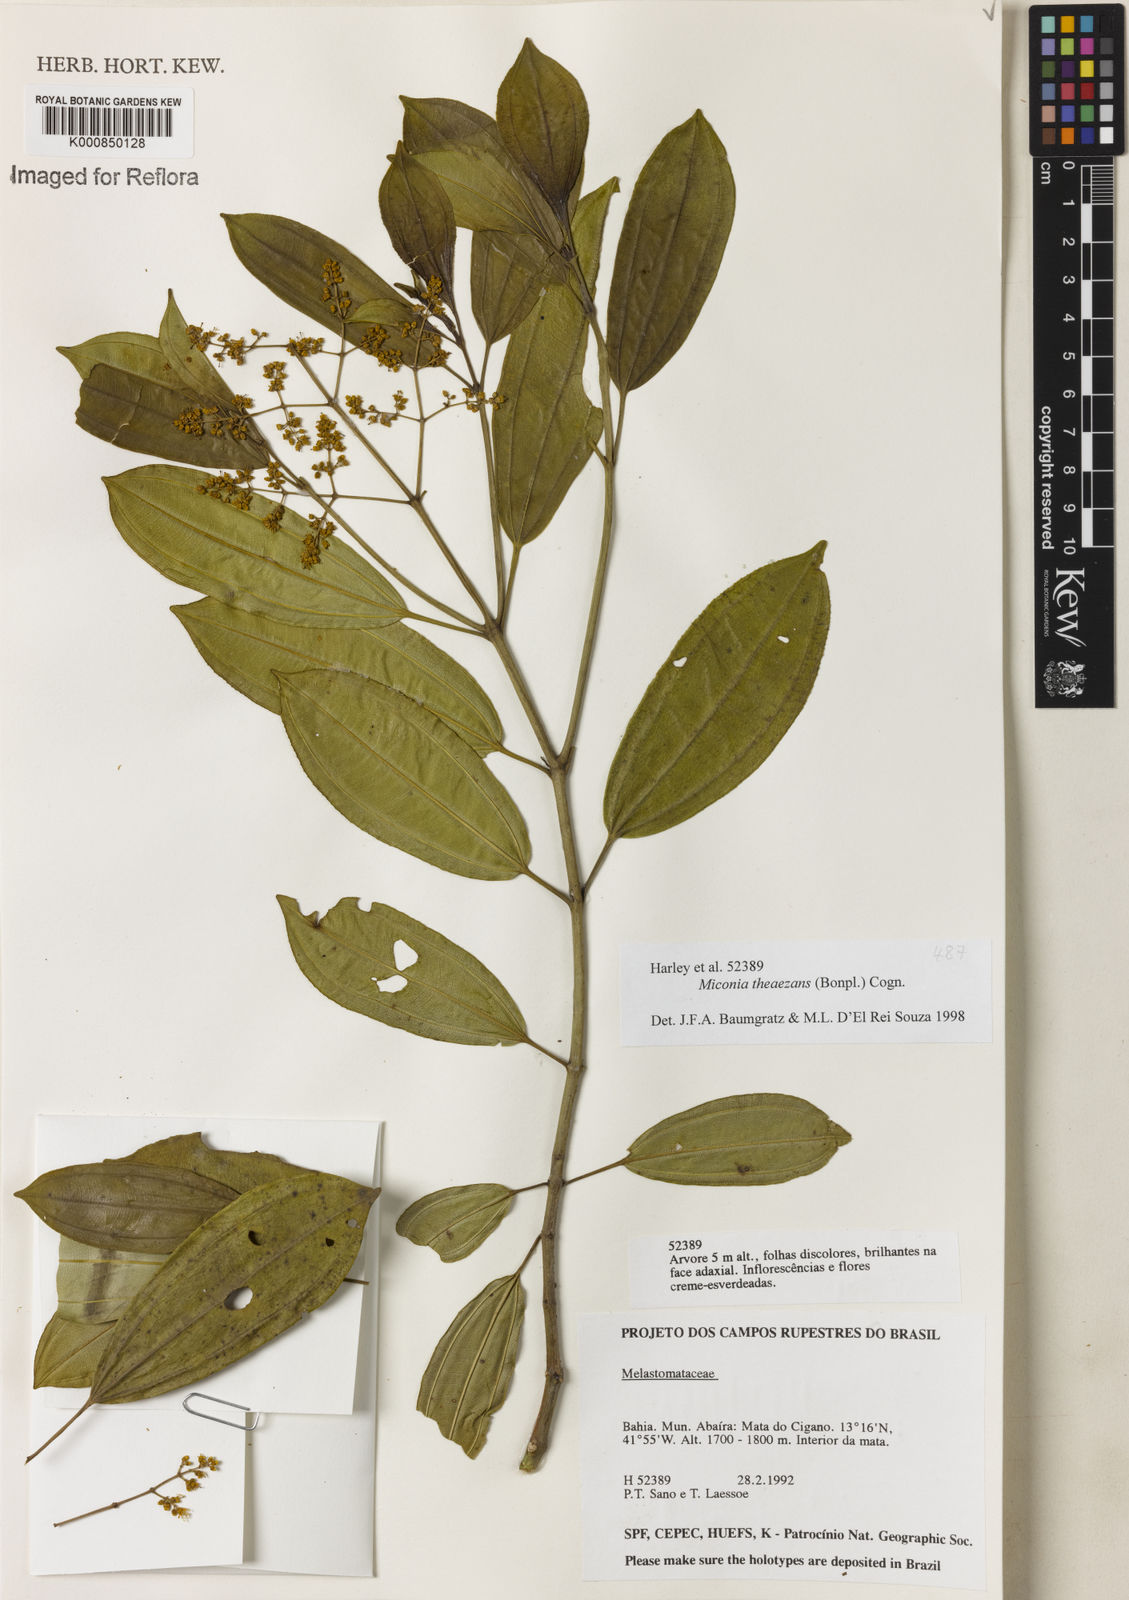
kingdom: Plantae
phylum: Tracheophyta
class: Magnoliopsida
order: Myrtales
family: Melastomataceae
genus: Miconia
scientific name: Miconia
